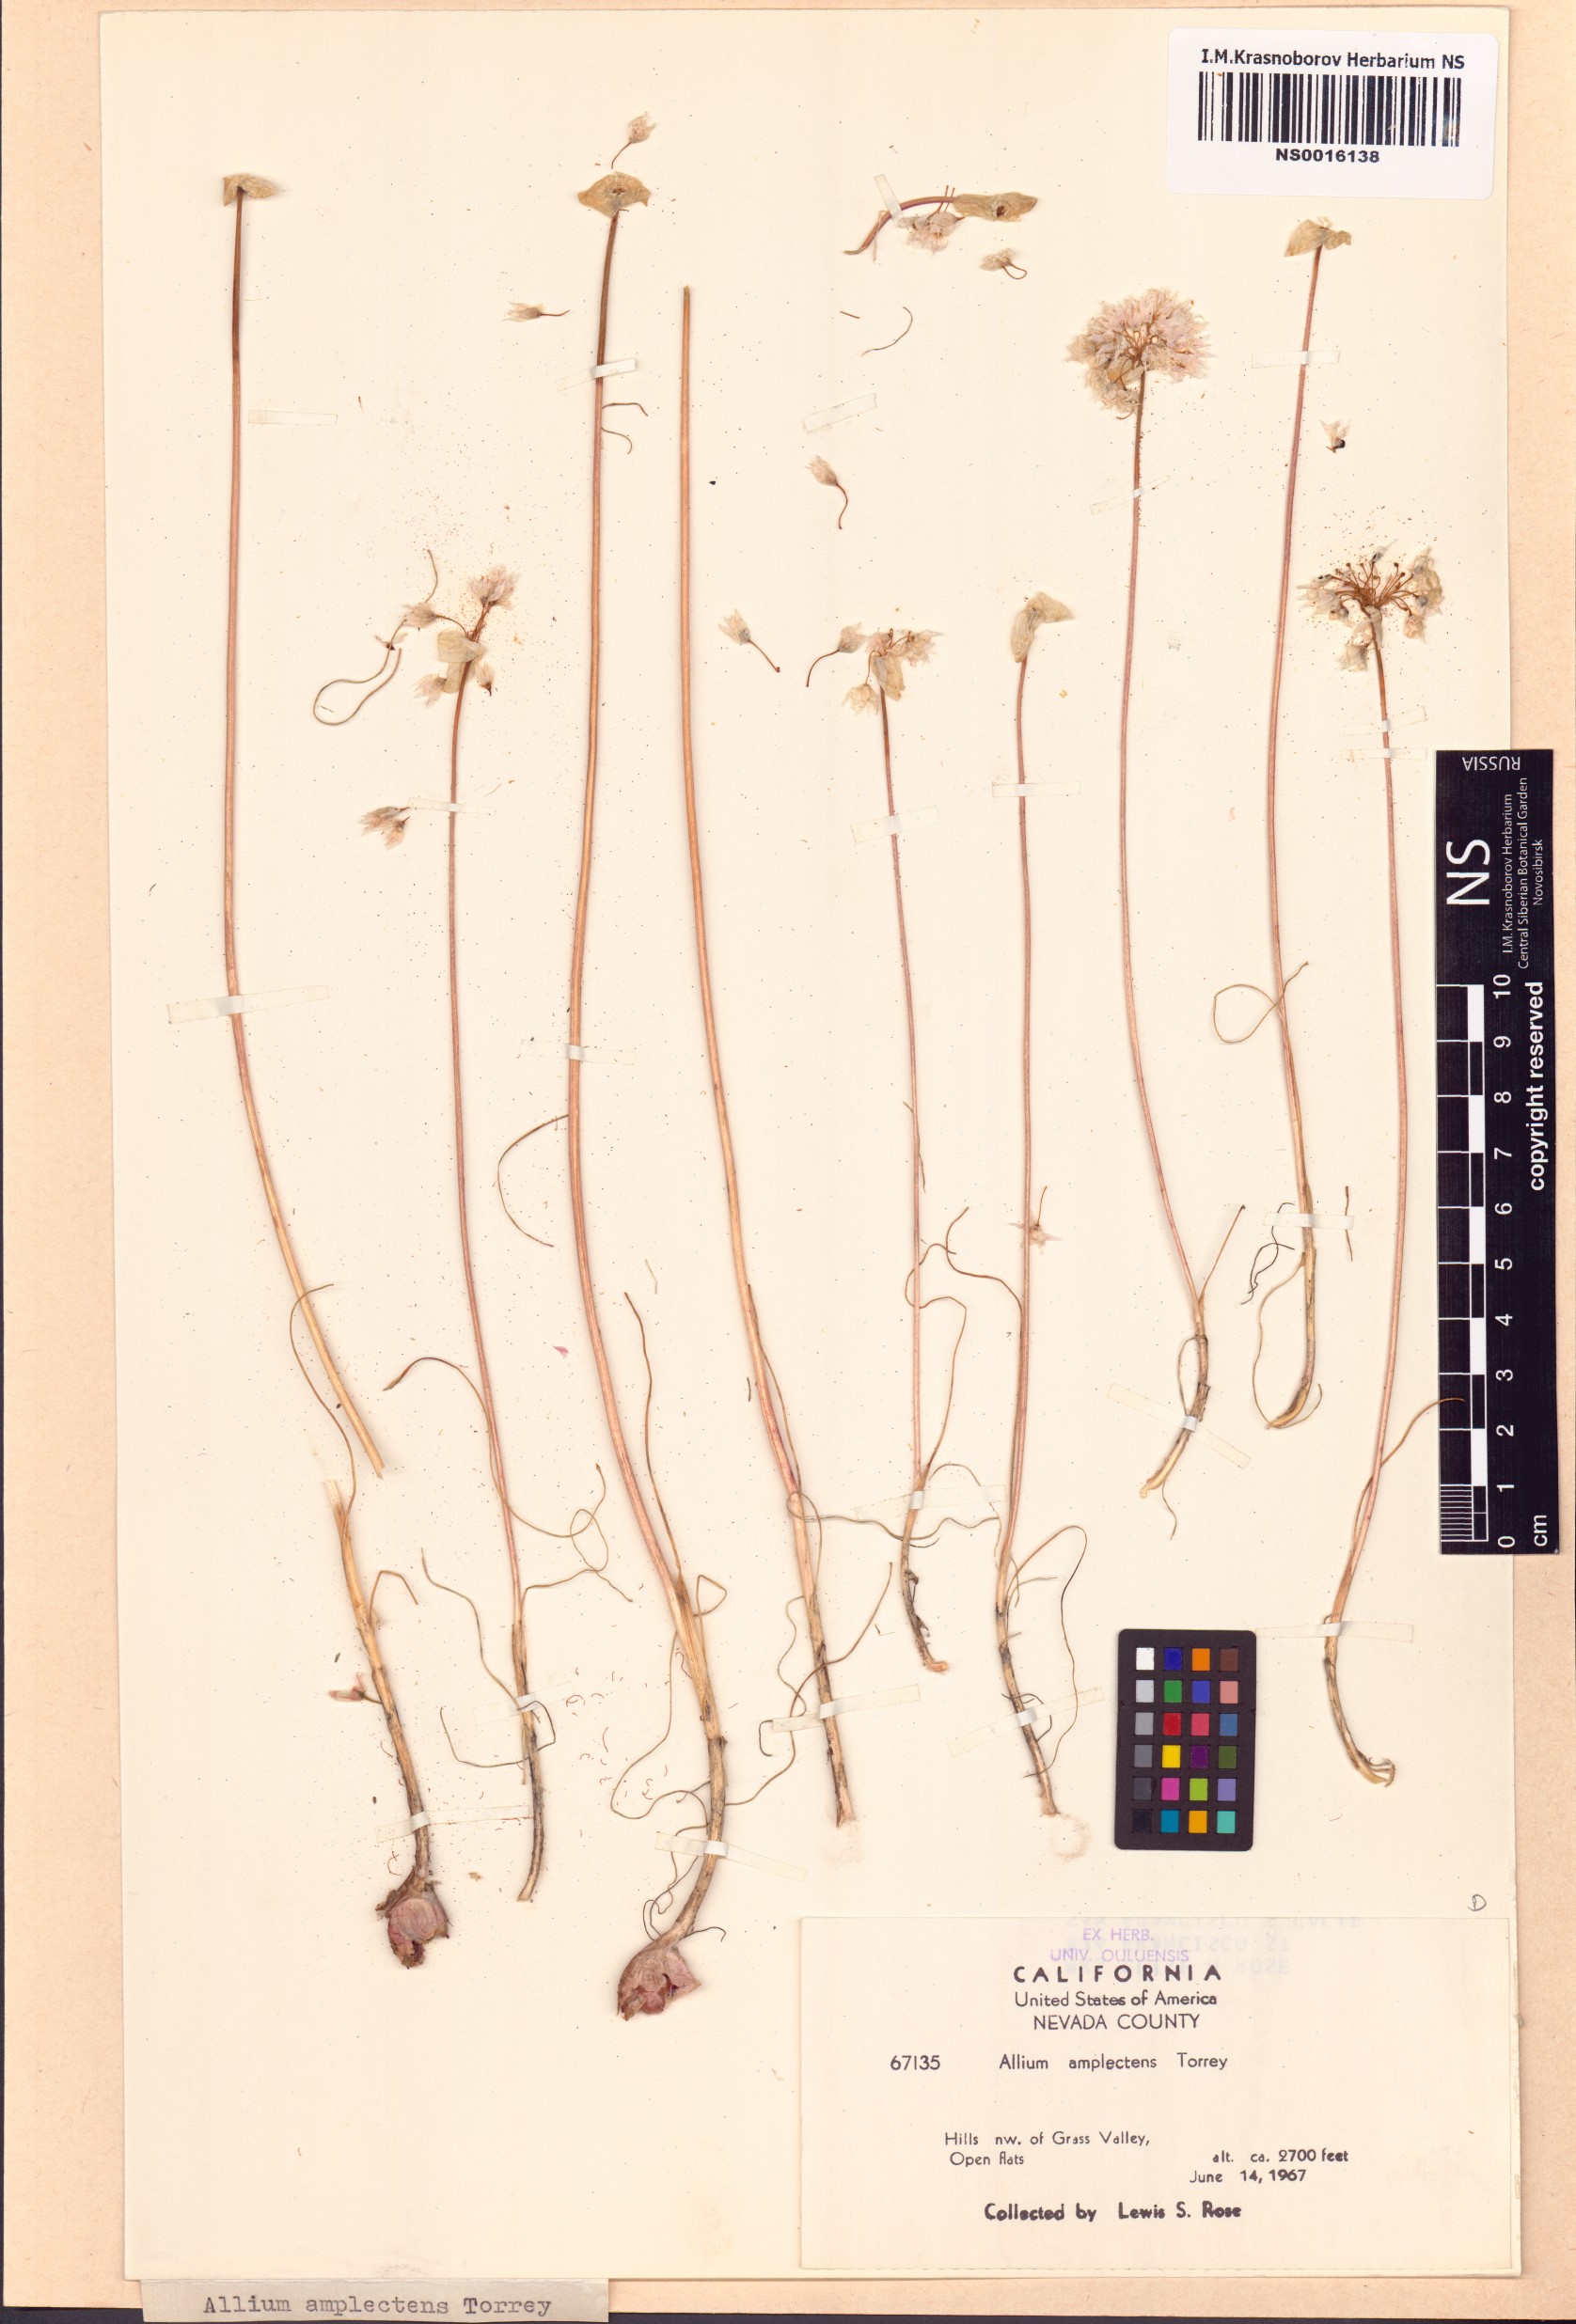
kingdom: Plantae
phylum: Tracheophyta
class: Liliopsida
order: Asparagales
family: Amaryllidaceae
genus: Allium
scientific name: Allium amplectens
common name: Narrow-leaved onion
